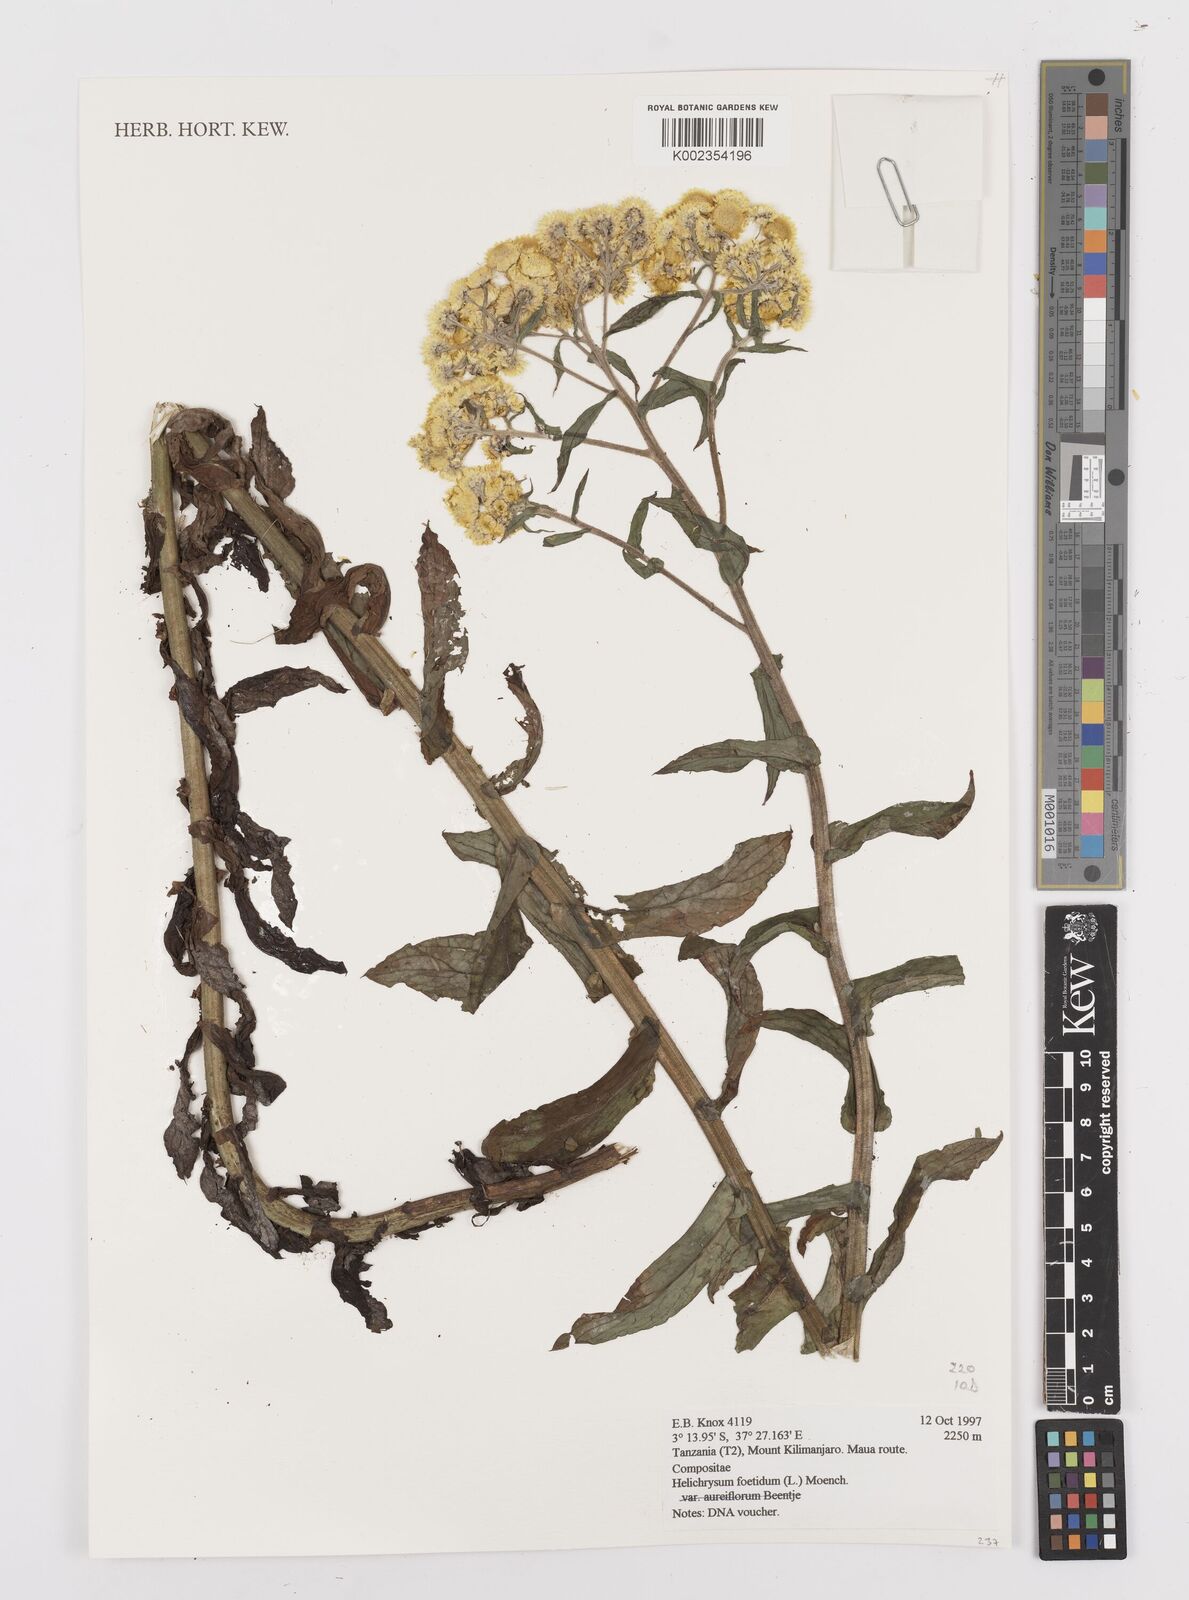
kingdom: Plantae
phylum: Tracheophyta
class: Magnoliopsida
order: Asterales
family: Asteraceae
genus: Helichrysum
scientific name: Helichrysum foetidum
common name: Stinking everlasting
